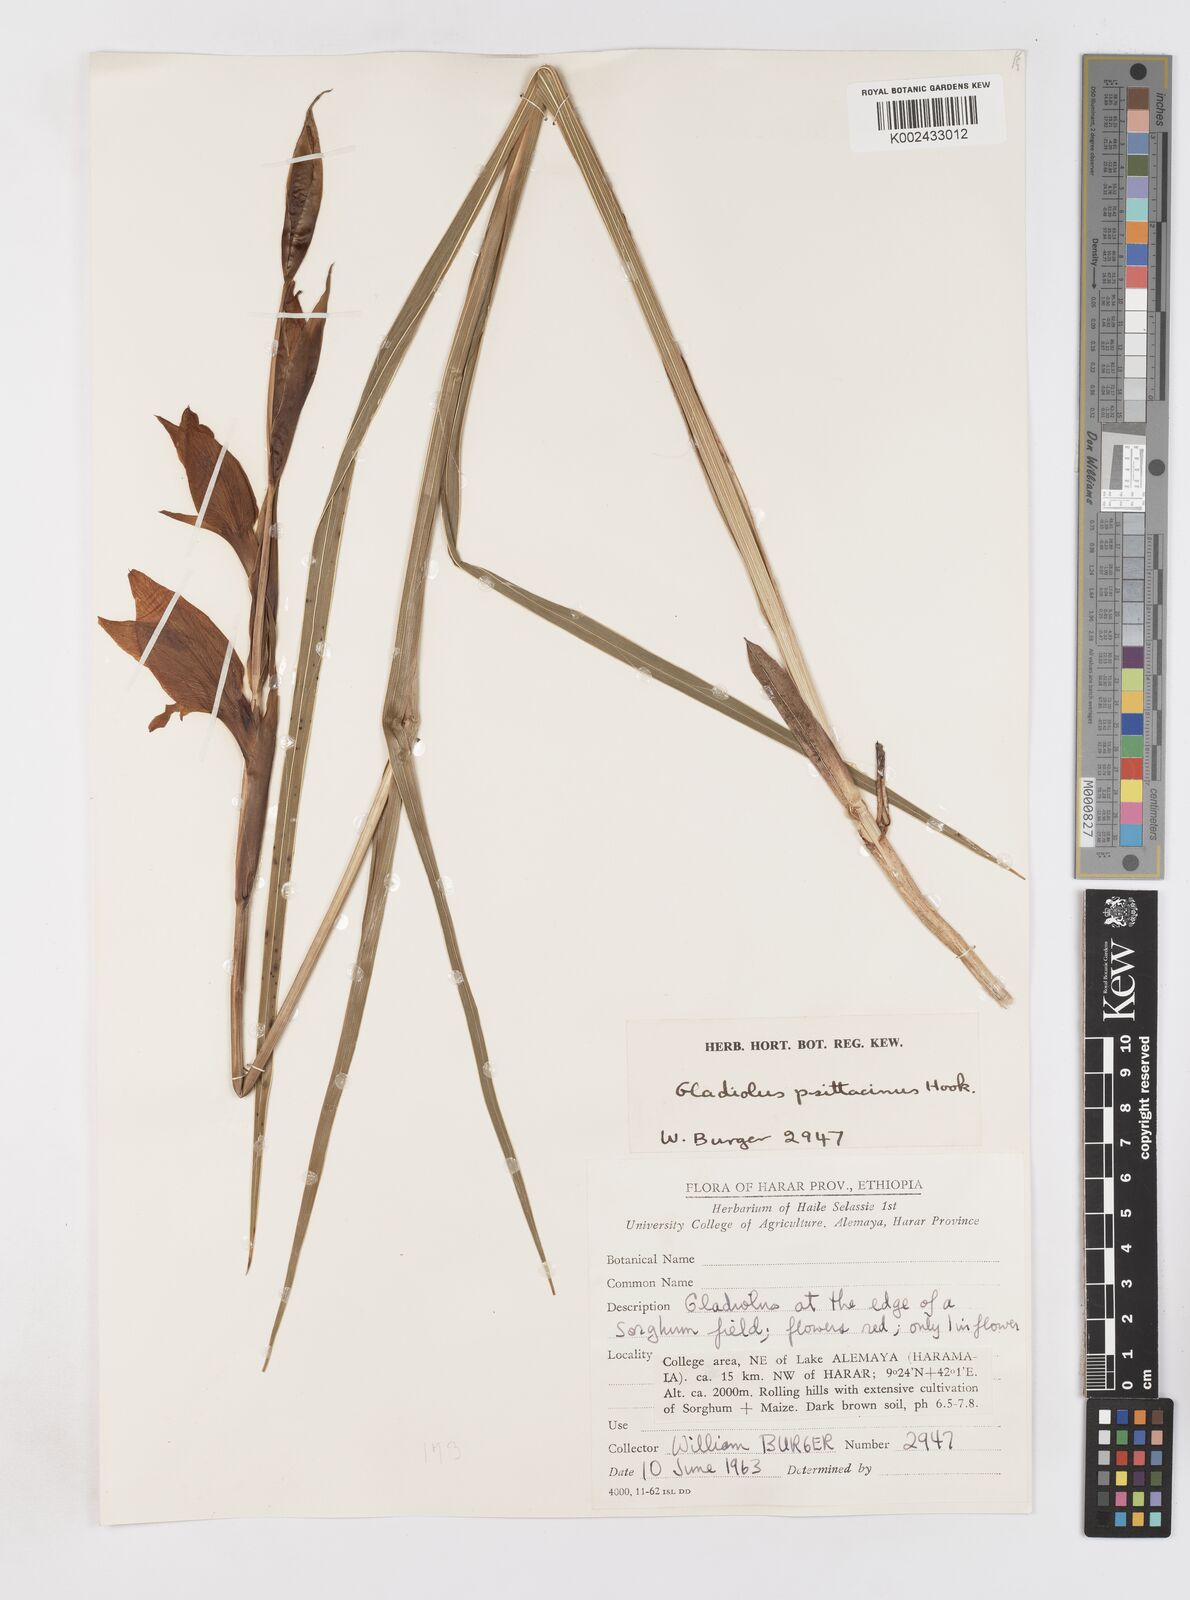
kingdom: Plantae
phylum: Tracheophyta
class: Liliopsida
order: Asparagales
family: Iridaceae
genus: Gladiolus
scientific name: Gladiolus dalenii
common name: Cornflag
